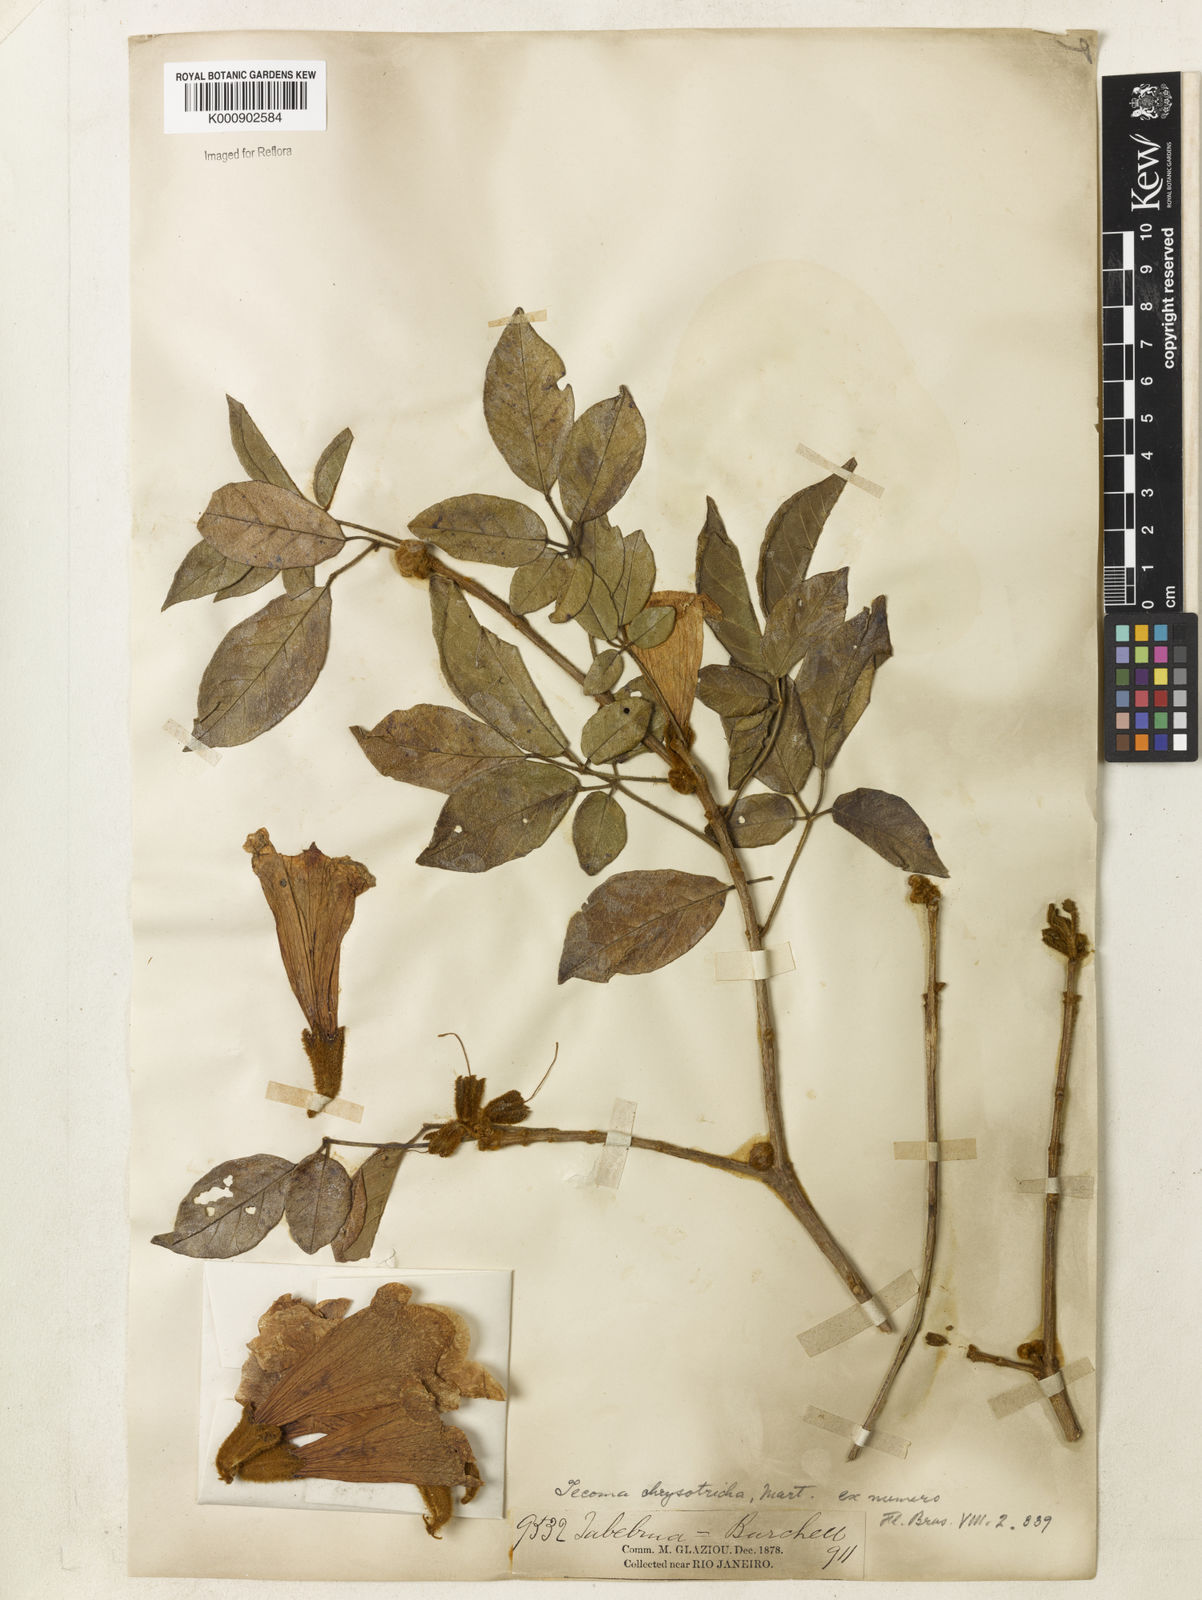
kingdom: Plantae
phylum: Tracheophyta
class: Magnoliopsida
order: Lamiales
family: Bignoniaceae
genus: Handroanthus
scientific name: Handroanthus chrysotrichus
